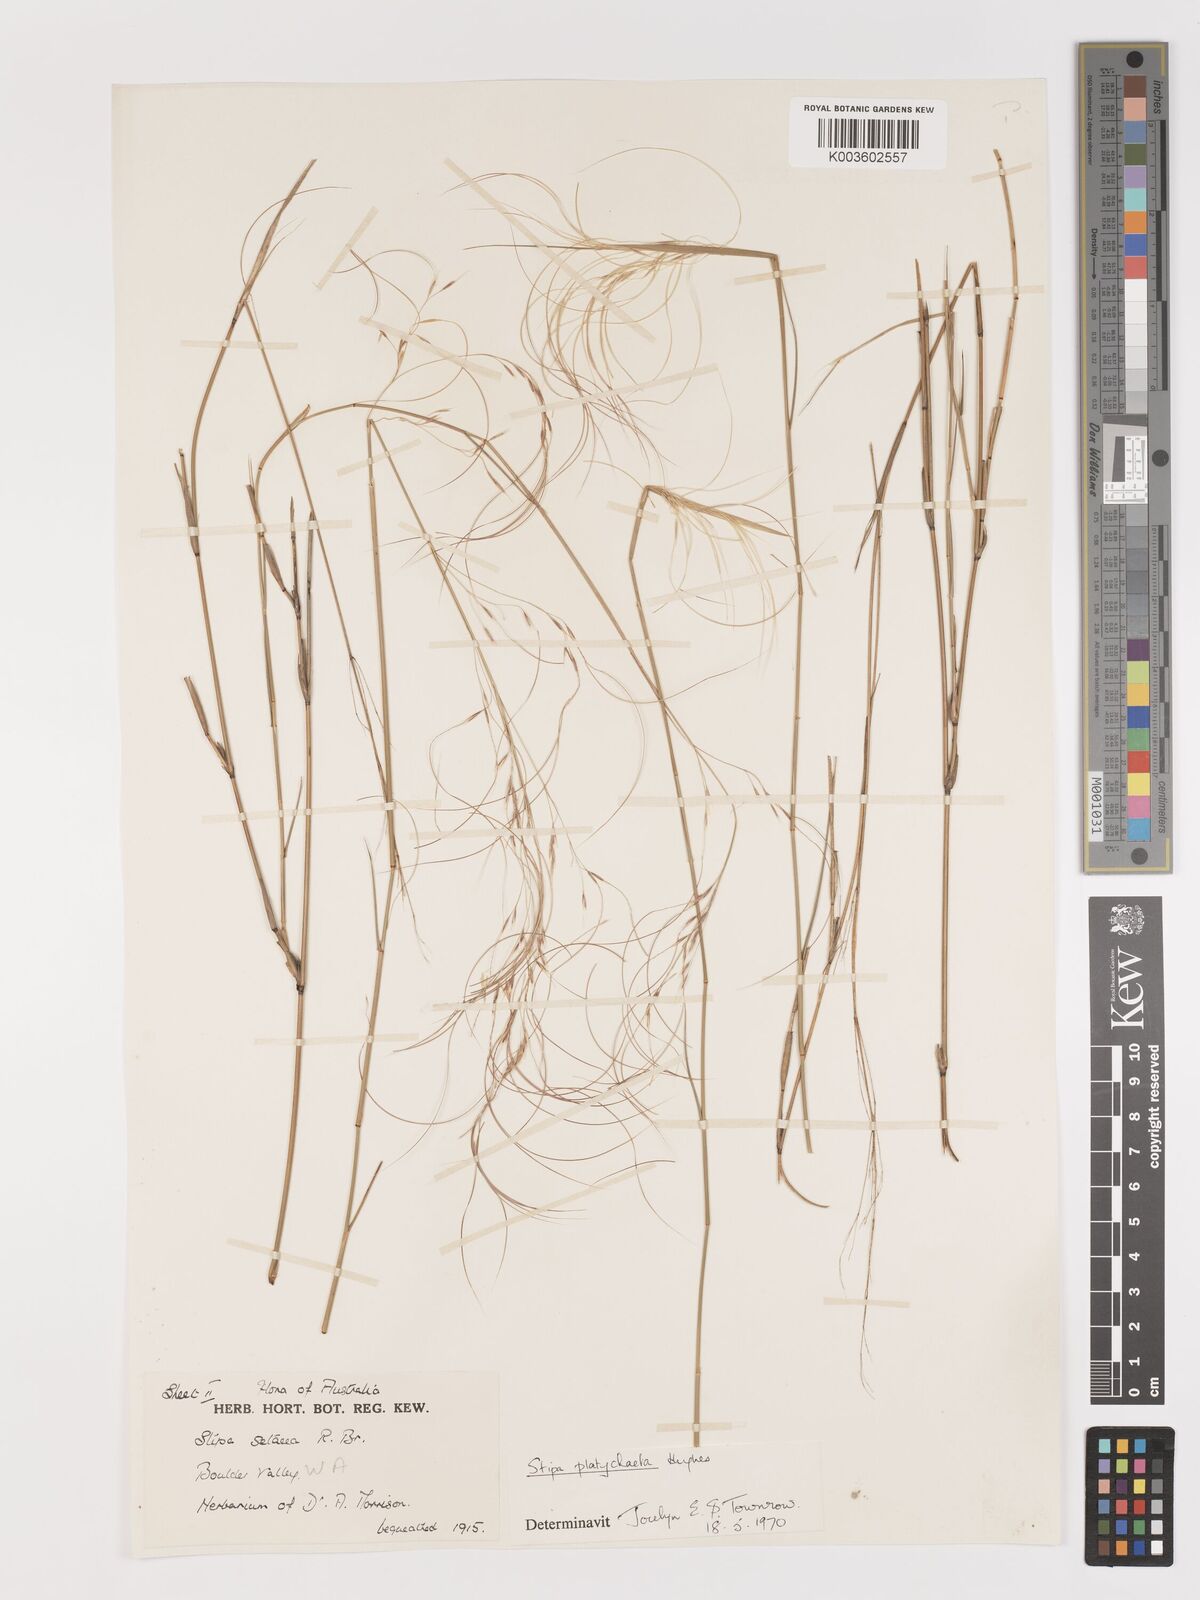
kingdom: Plantae
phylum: Tracheophyta
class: Liliopsida
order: Poales
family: Poaceae
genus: Austrostipa
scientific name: Austrostipa platychaeta
